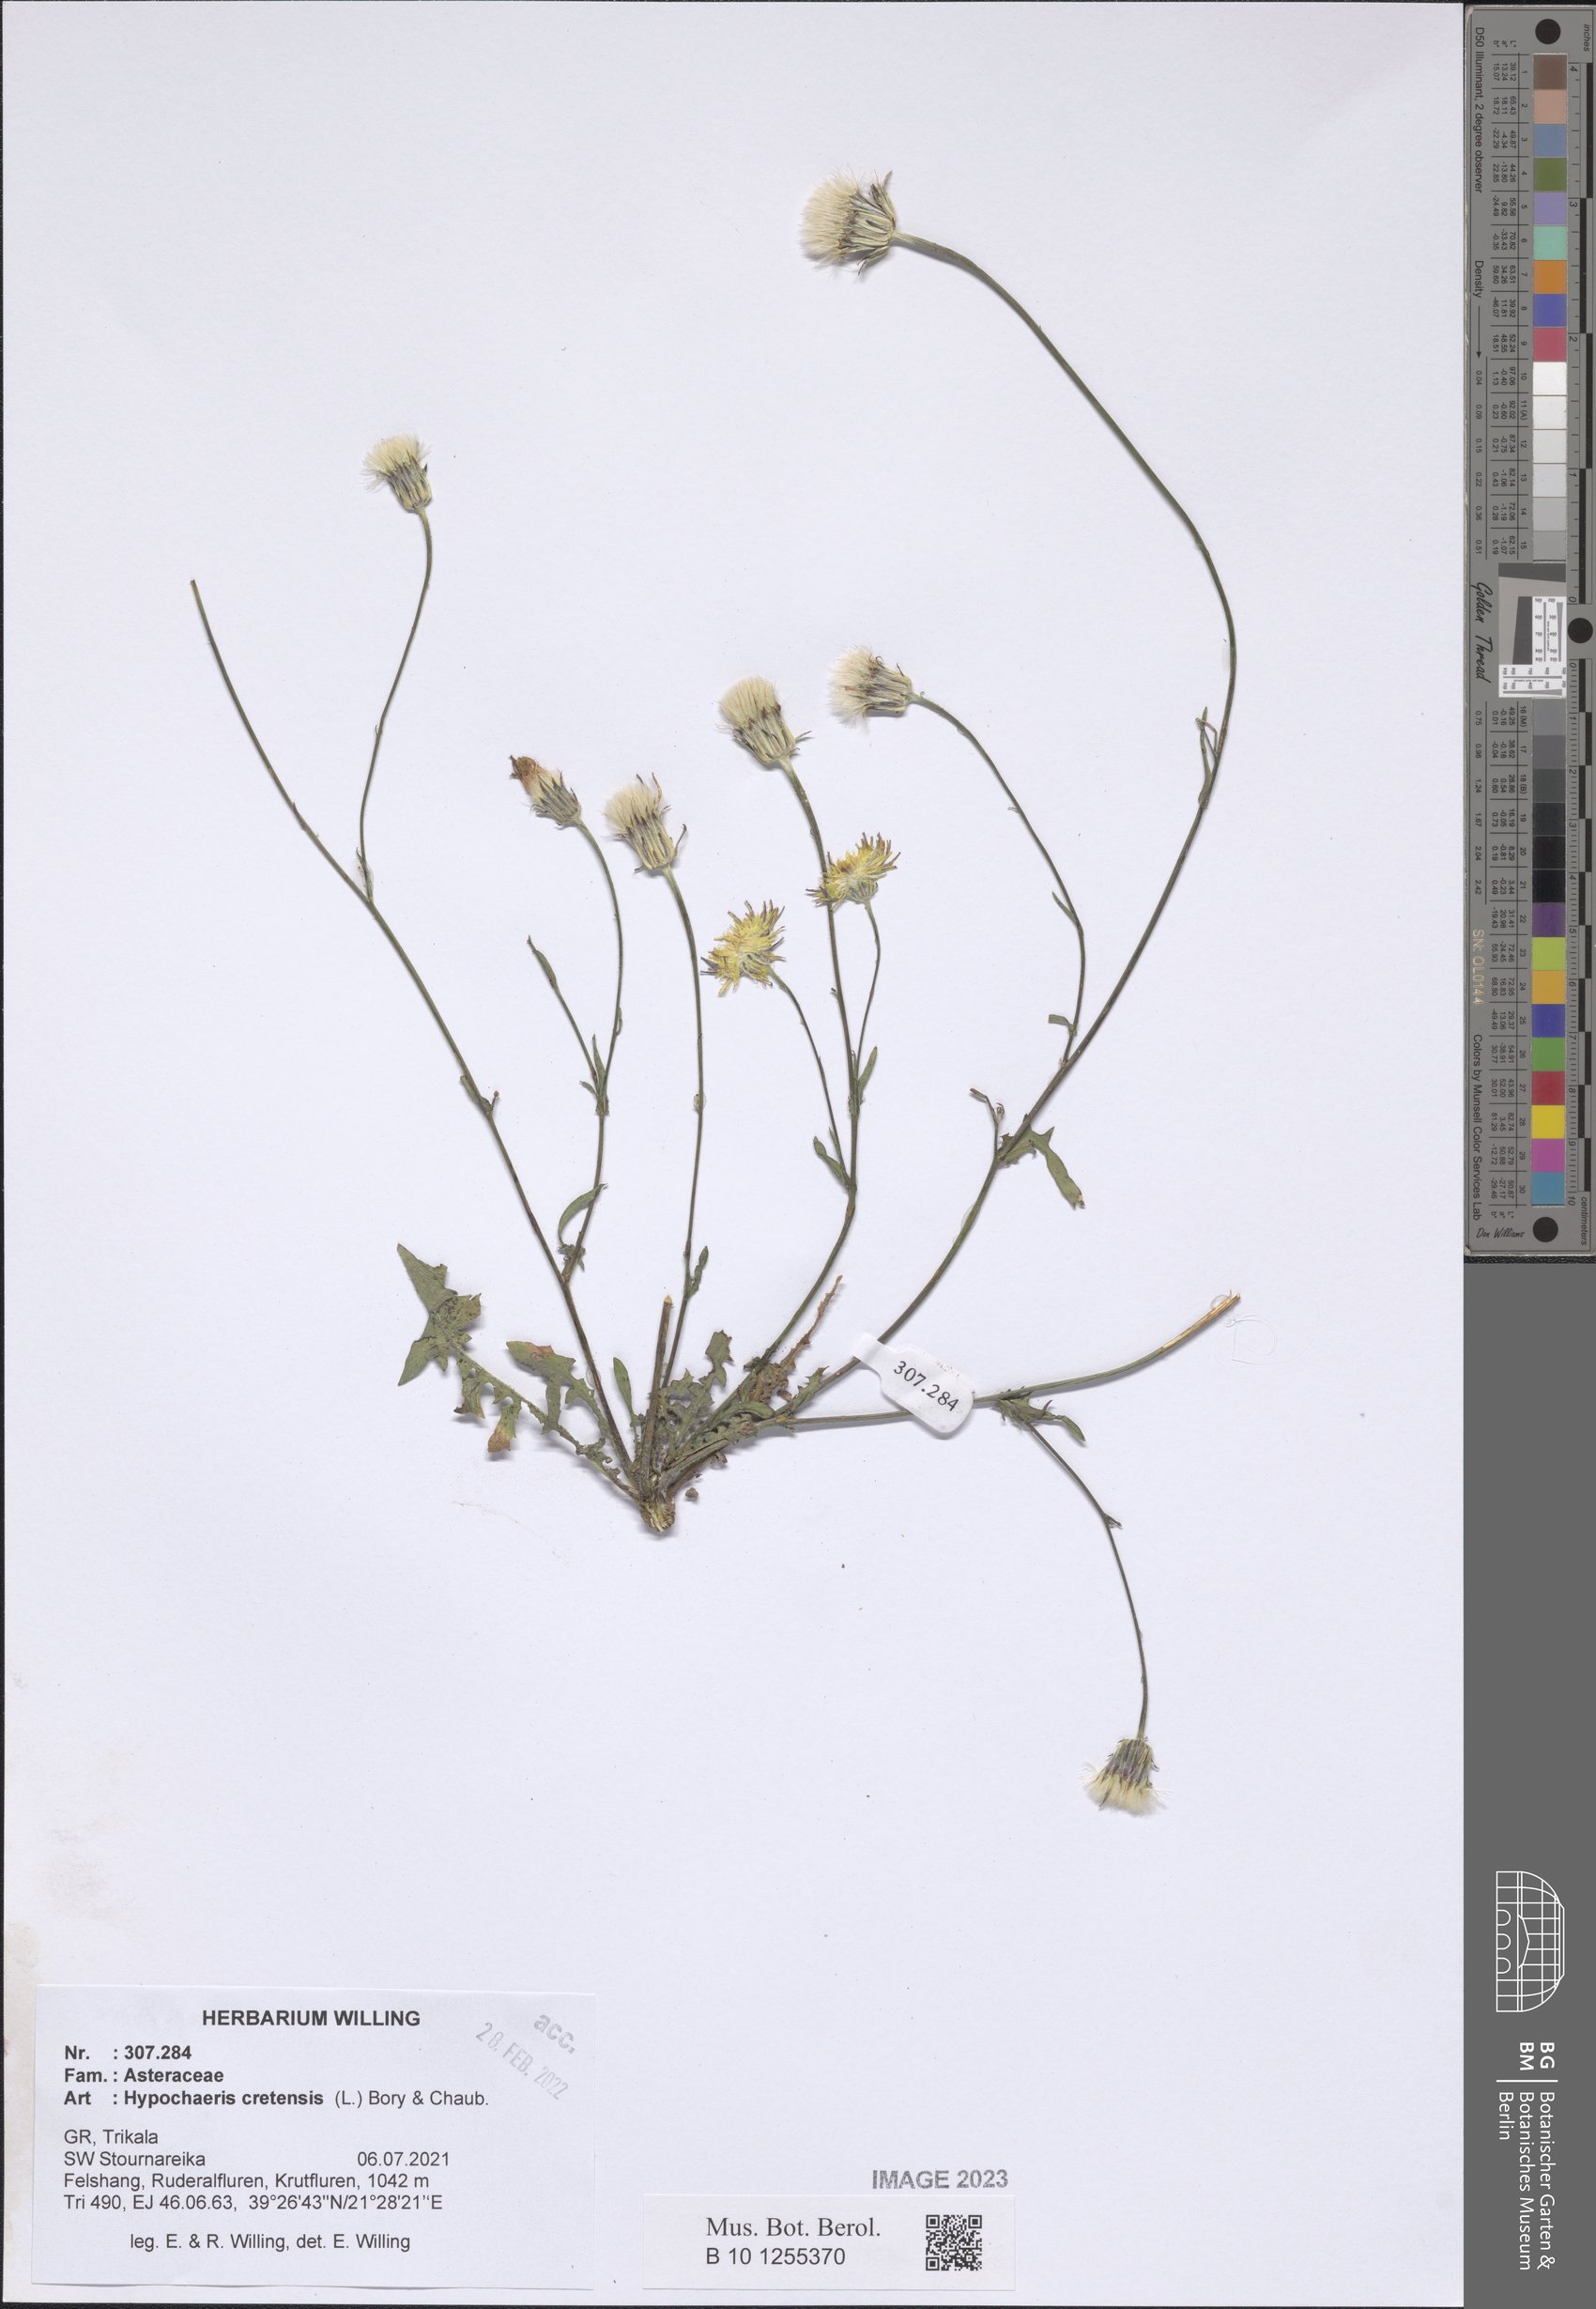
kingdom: Plantae
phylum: Tracheophyta
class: Magnoliopsida
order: Asterales
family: Asteraceae
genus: Hypochaeris
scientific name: Hypochaeris cretensis
